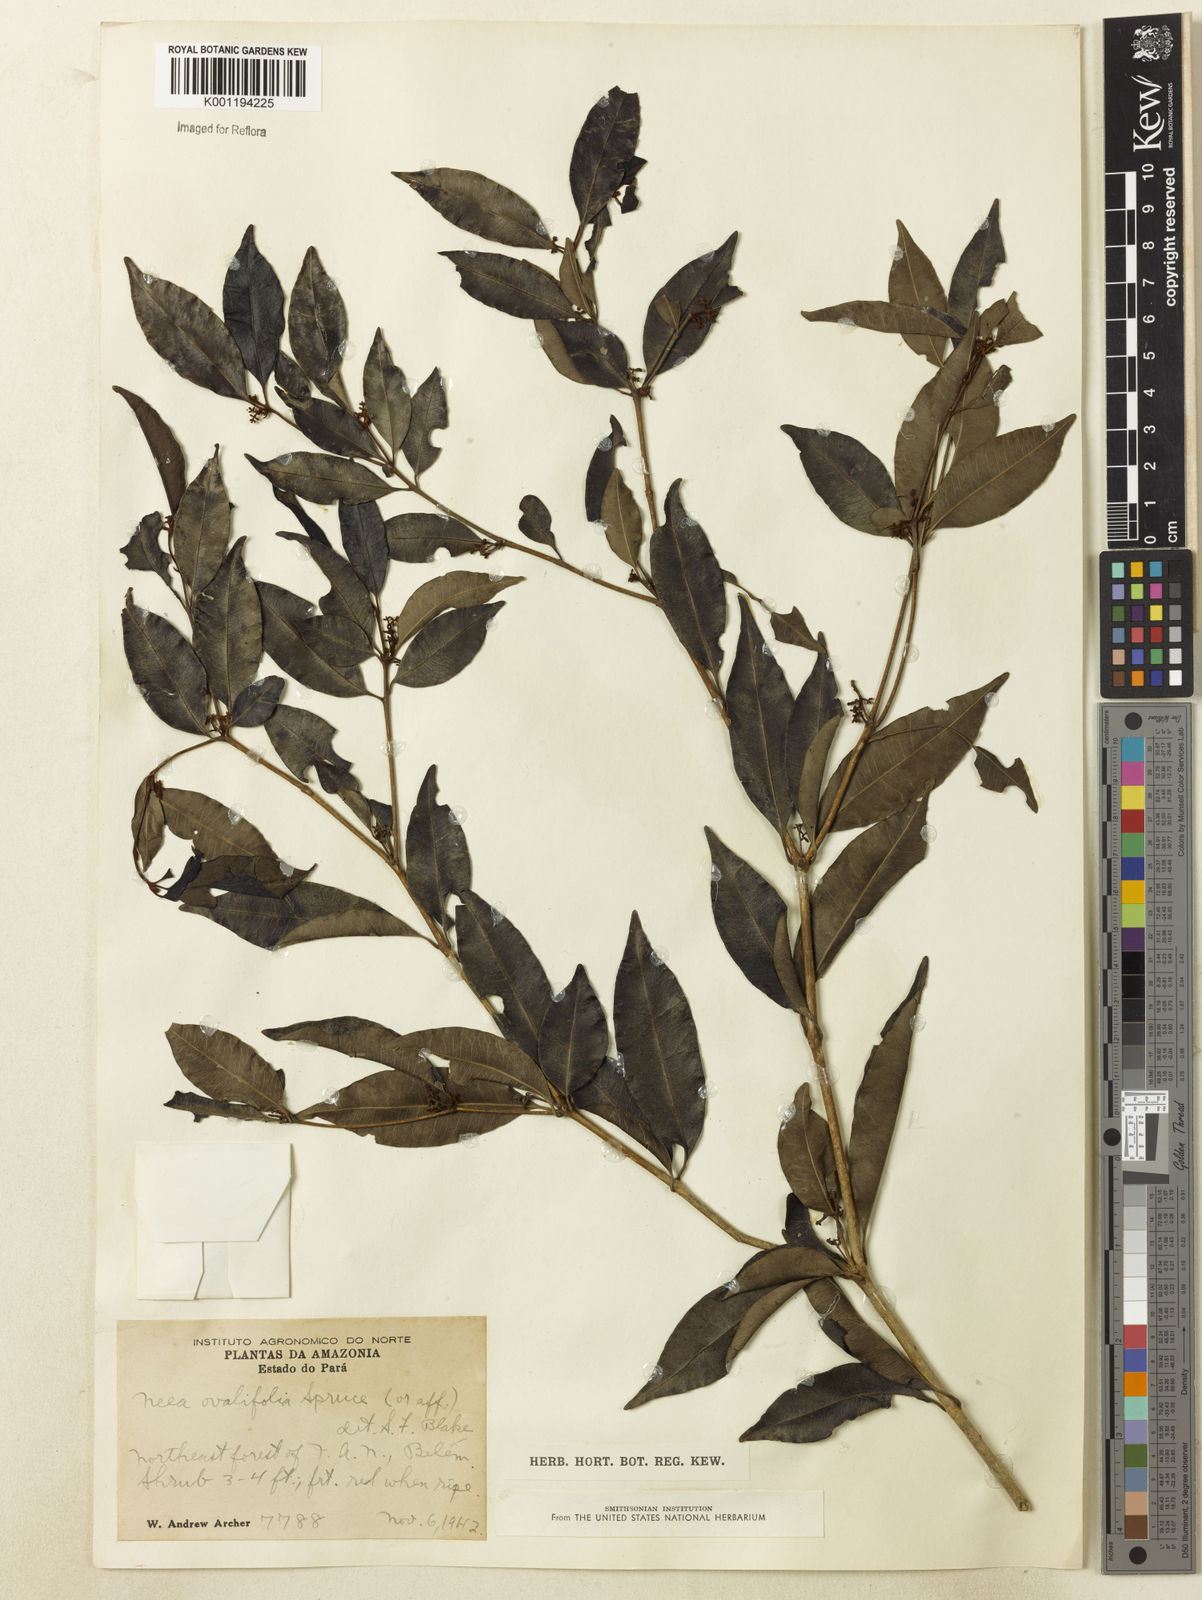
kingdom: Plantae
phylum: Tracheophyta
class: Magnoliopsida
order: Caryophyllales
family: Nyctaginaceae
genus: Neea
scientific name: Neea ovalifolia
